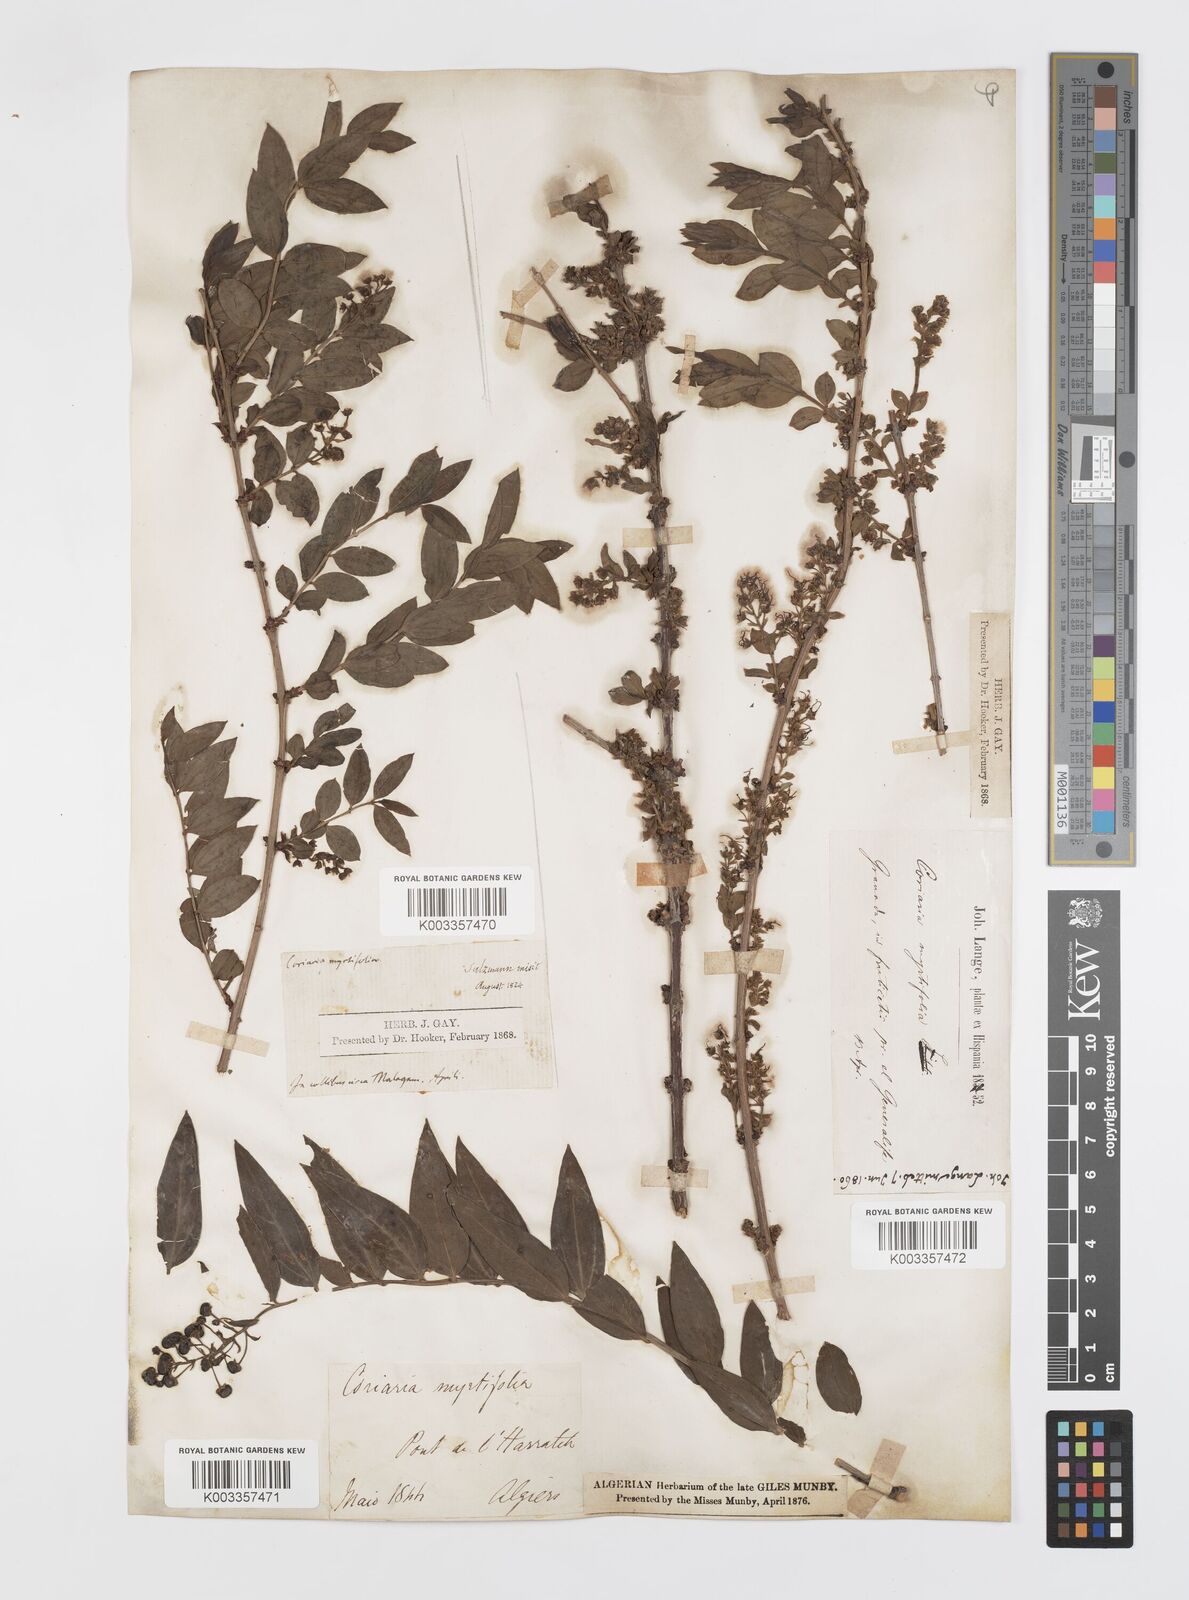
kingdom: Plantae
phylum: Tracheophyta
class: Magnoliopsida
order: Cucurbitales
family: Coriariaceae
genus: Coriaria
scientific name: Coriaria myrtifolia
